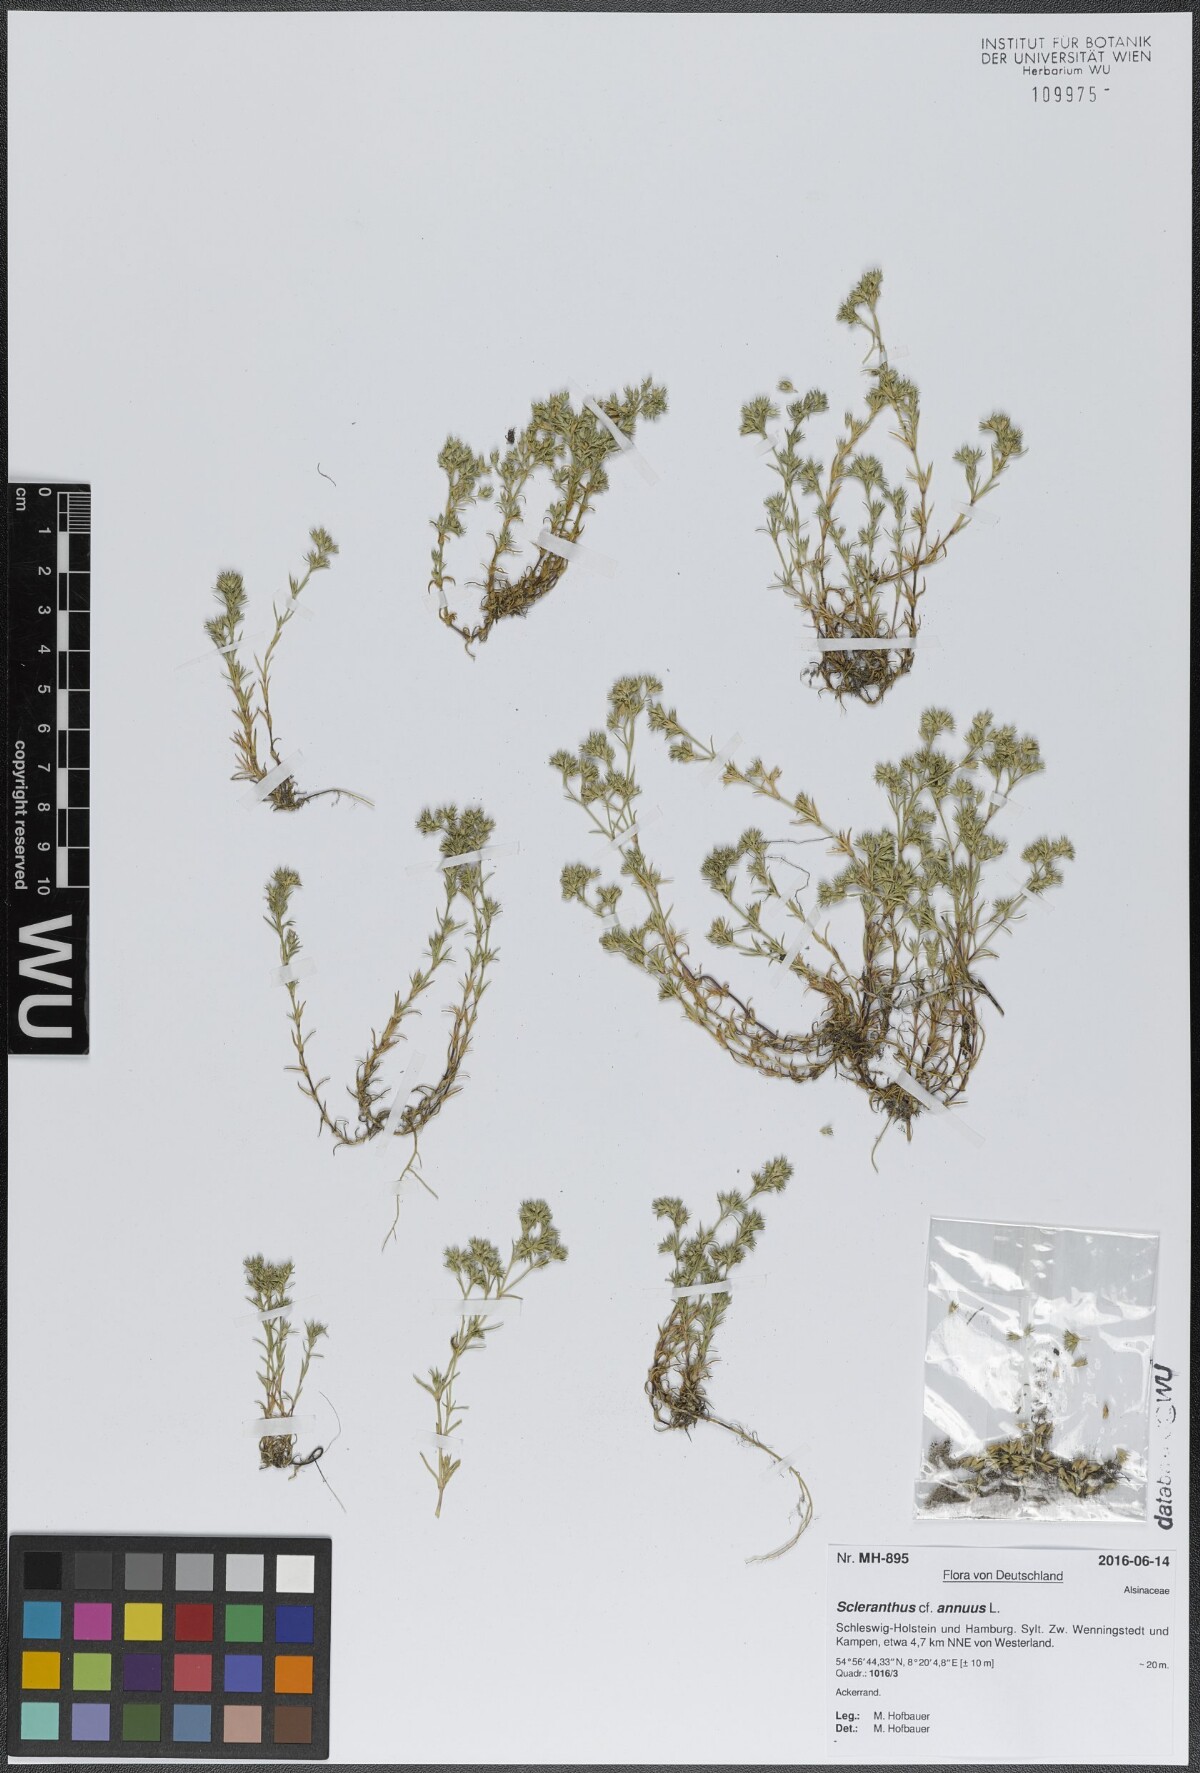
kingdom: Plantae
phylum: Tracheophyta
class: Magnoliopsida
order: Caryophyllales
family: Caryophyllaceae
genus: Scleranthus
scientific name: Scleranthus annuus
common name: Annual knawel
